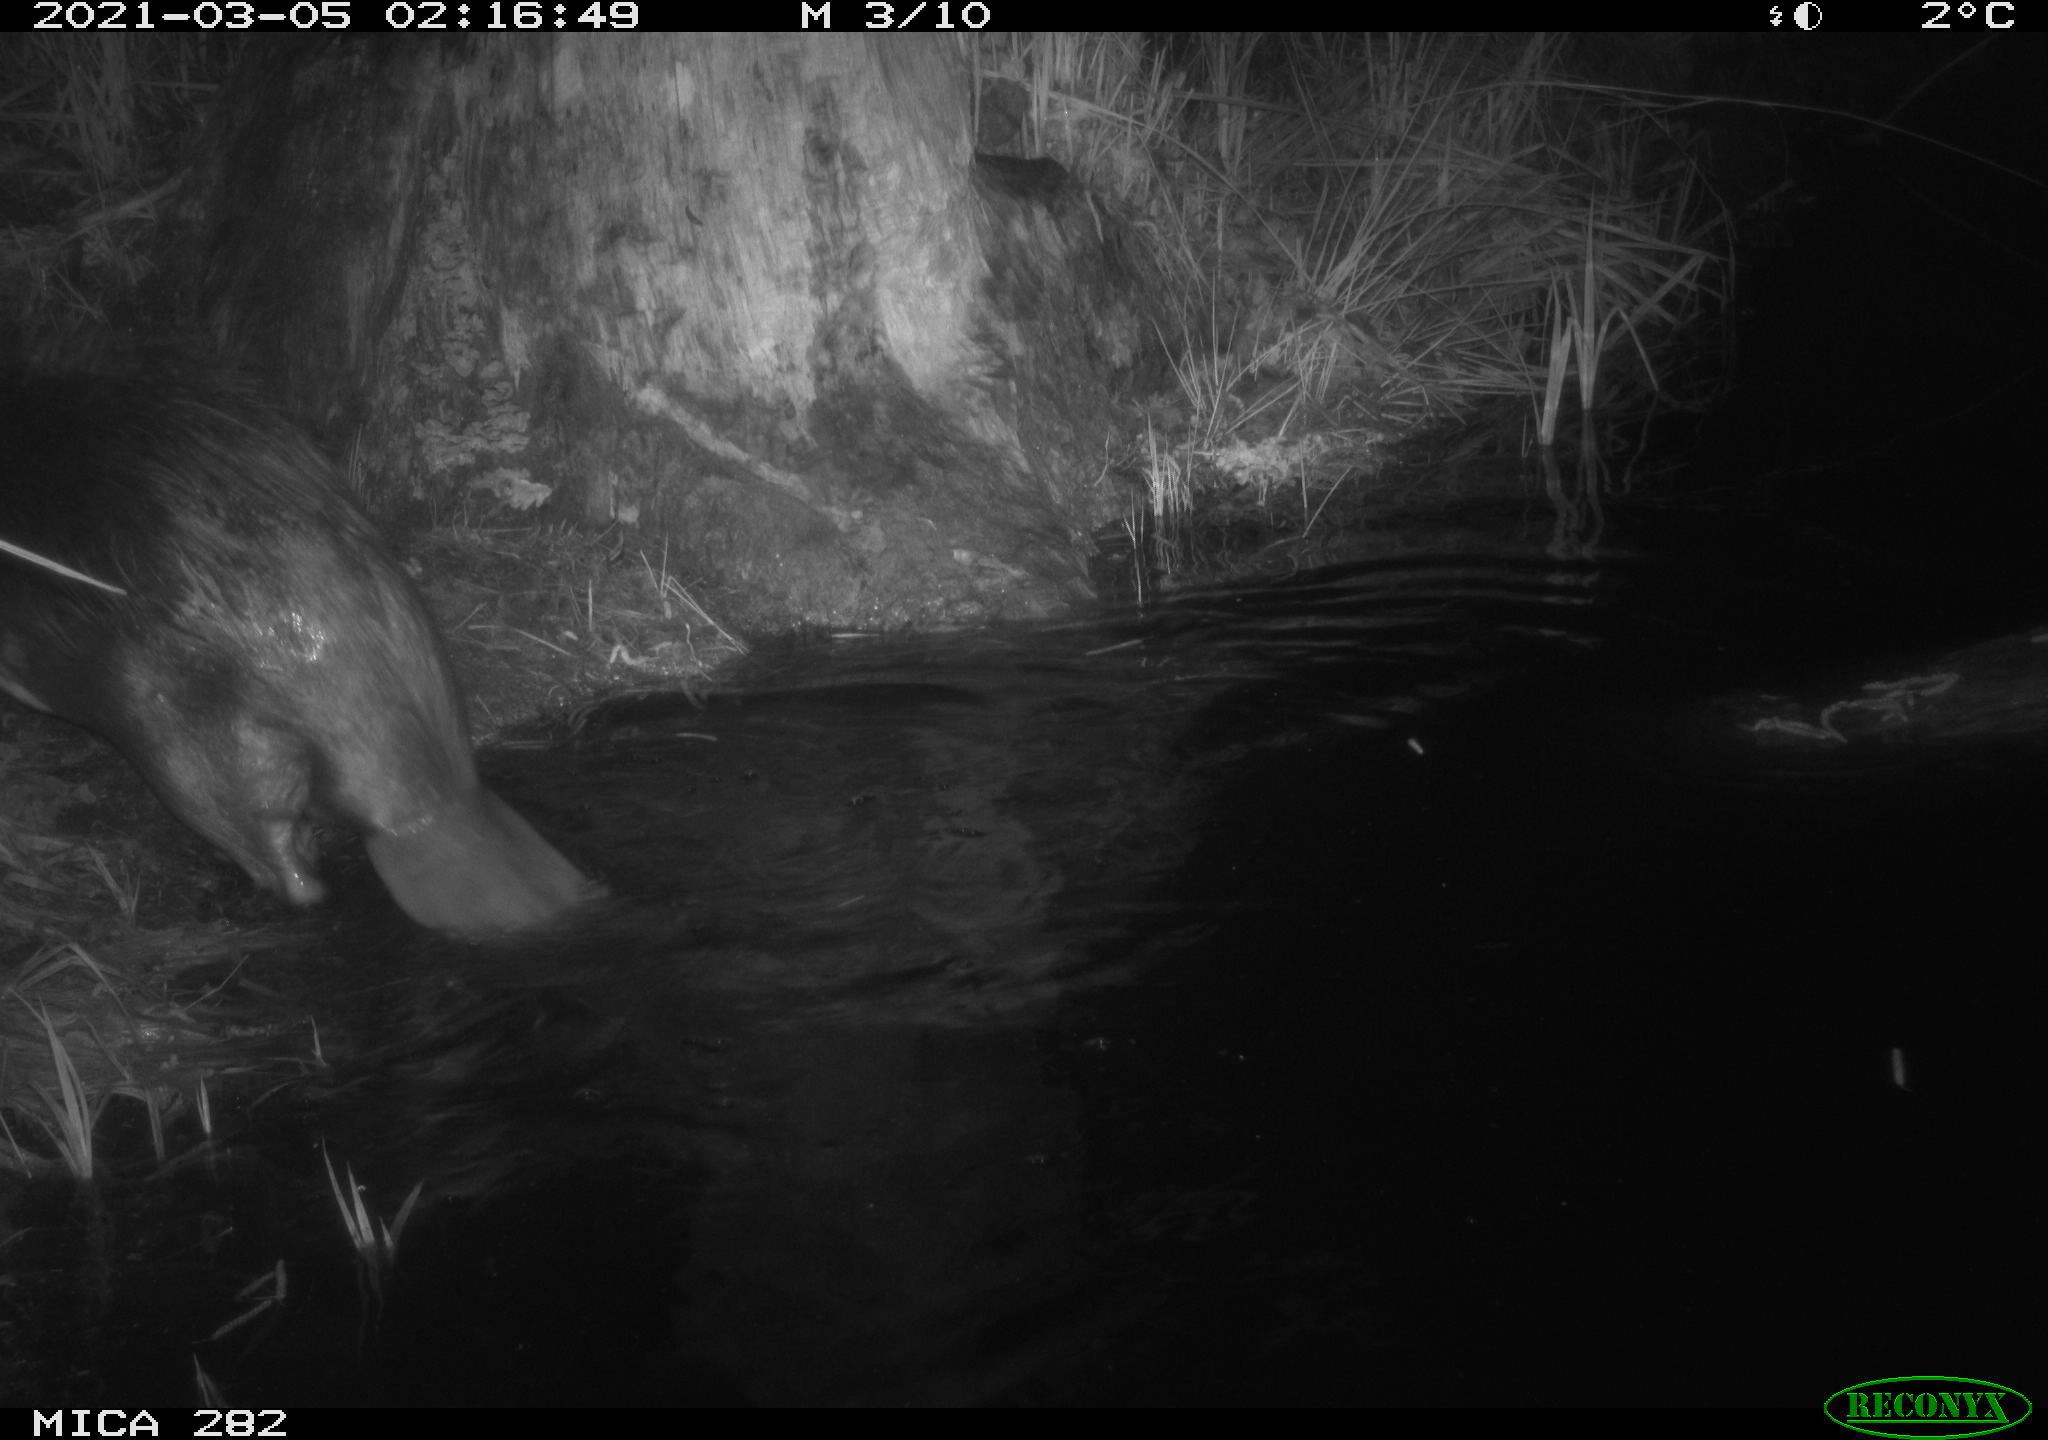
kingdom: Animalia
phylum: Chordata
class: Mammalia
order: Rodentia
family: Castoridae
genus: Castor
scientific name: Castor fiber
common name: Eurasian beaver
